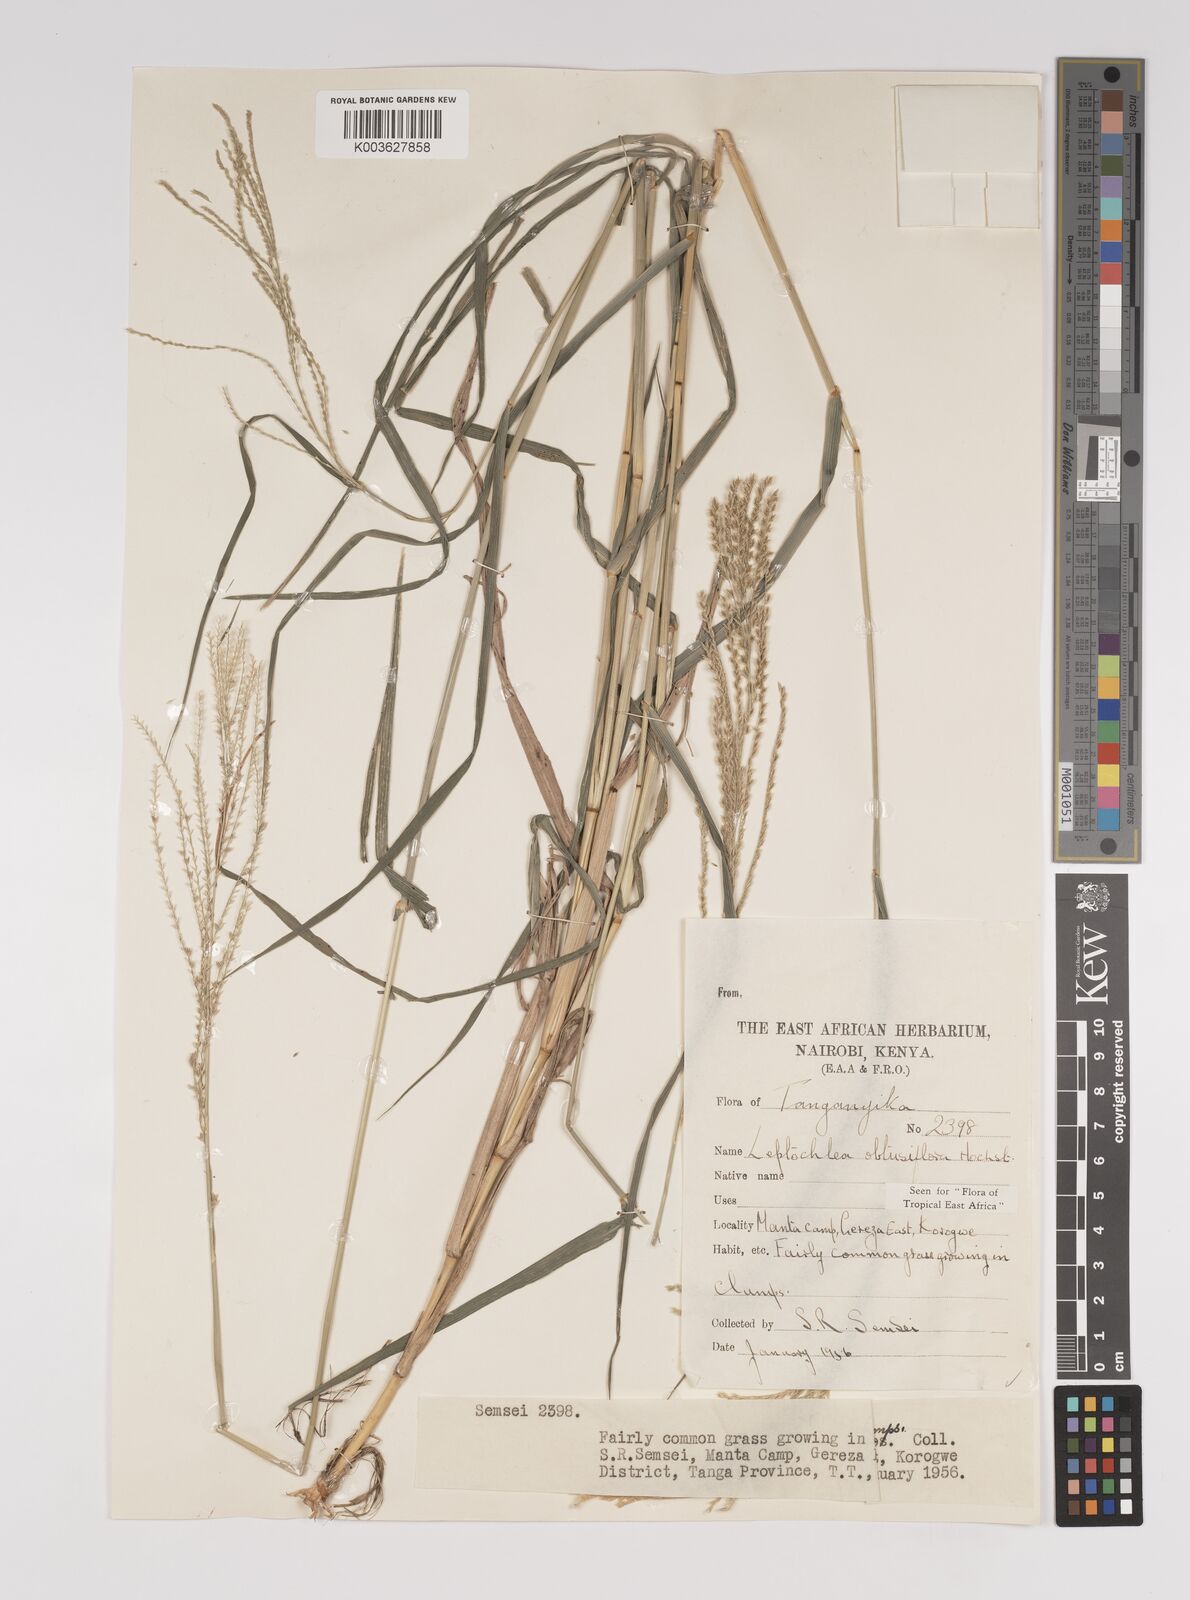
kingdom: Plantae
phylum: Tracheophyta
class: Liliopsida
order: Poales
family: Poaceae
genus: Disakisperma
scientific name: Disakisperma obtusiflorum
